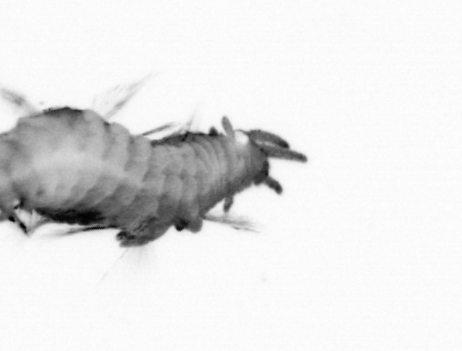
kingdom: Animalia
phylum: Annelida
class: Polychaeta
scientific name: Polychaeta
